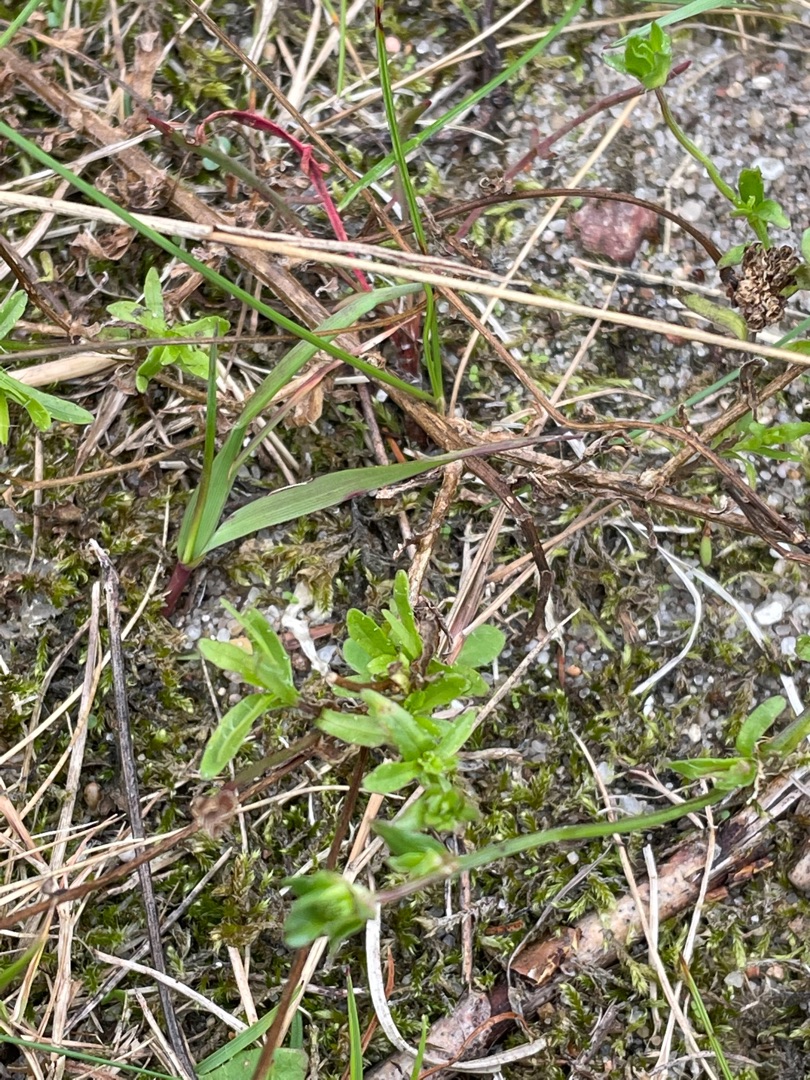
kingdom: Plantae
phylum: Tracheophyta
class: Magnoliopsida
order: Asterales
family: Campanulaceae
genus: Jasione
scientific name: Jasione montana
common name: Blåmunke
